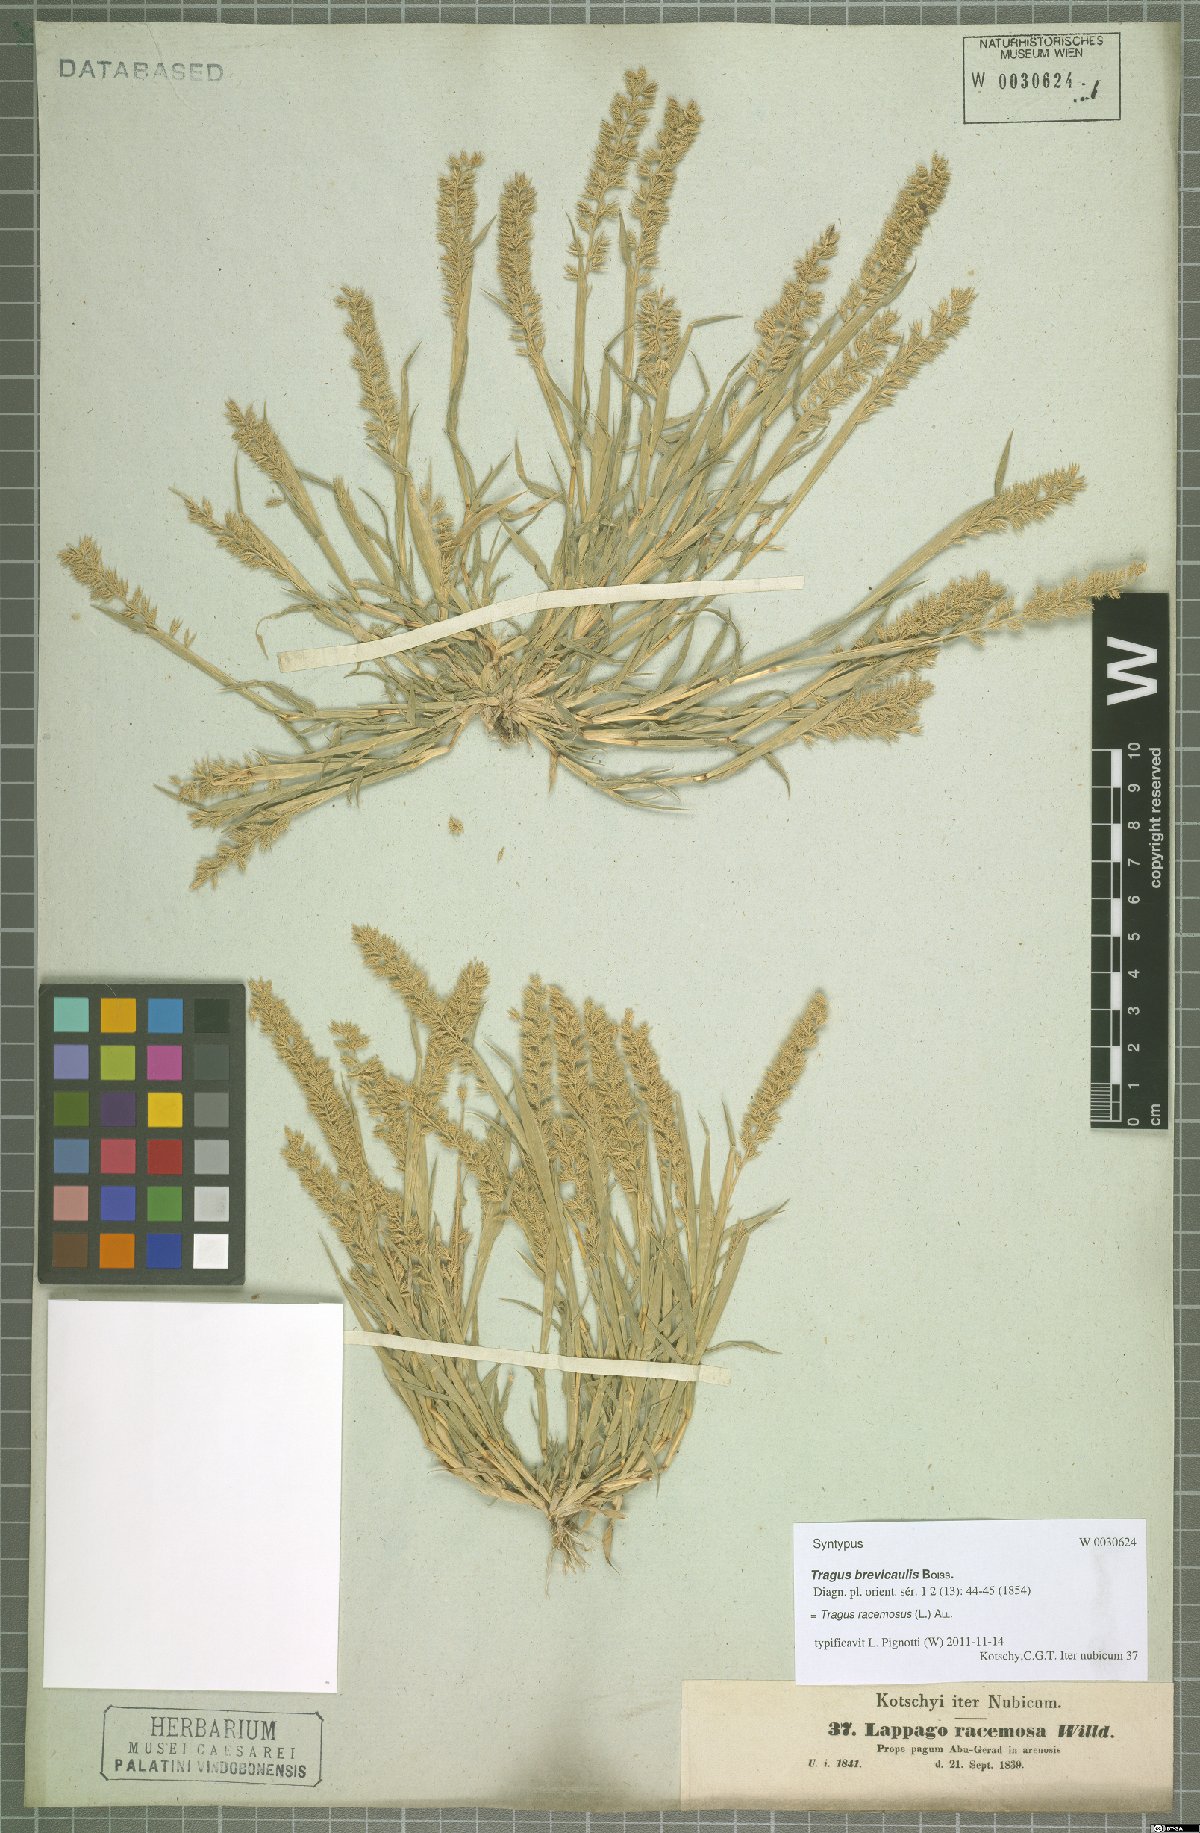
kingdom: Plantae
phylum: Tracheophyta
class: Liliopsida
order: Poales
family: Poaceae
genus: Tragus
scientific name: Tragus racemosus
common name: European bur-grass
